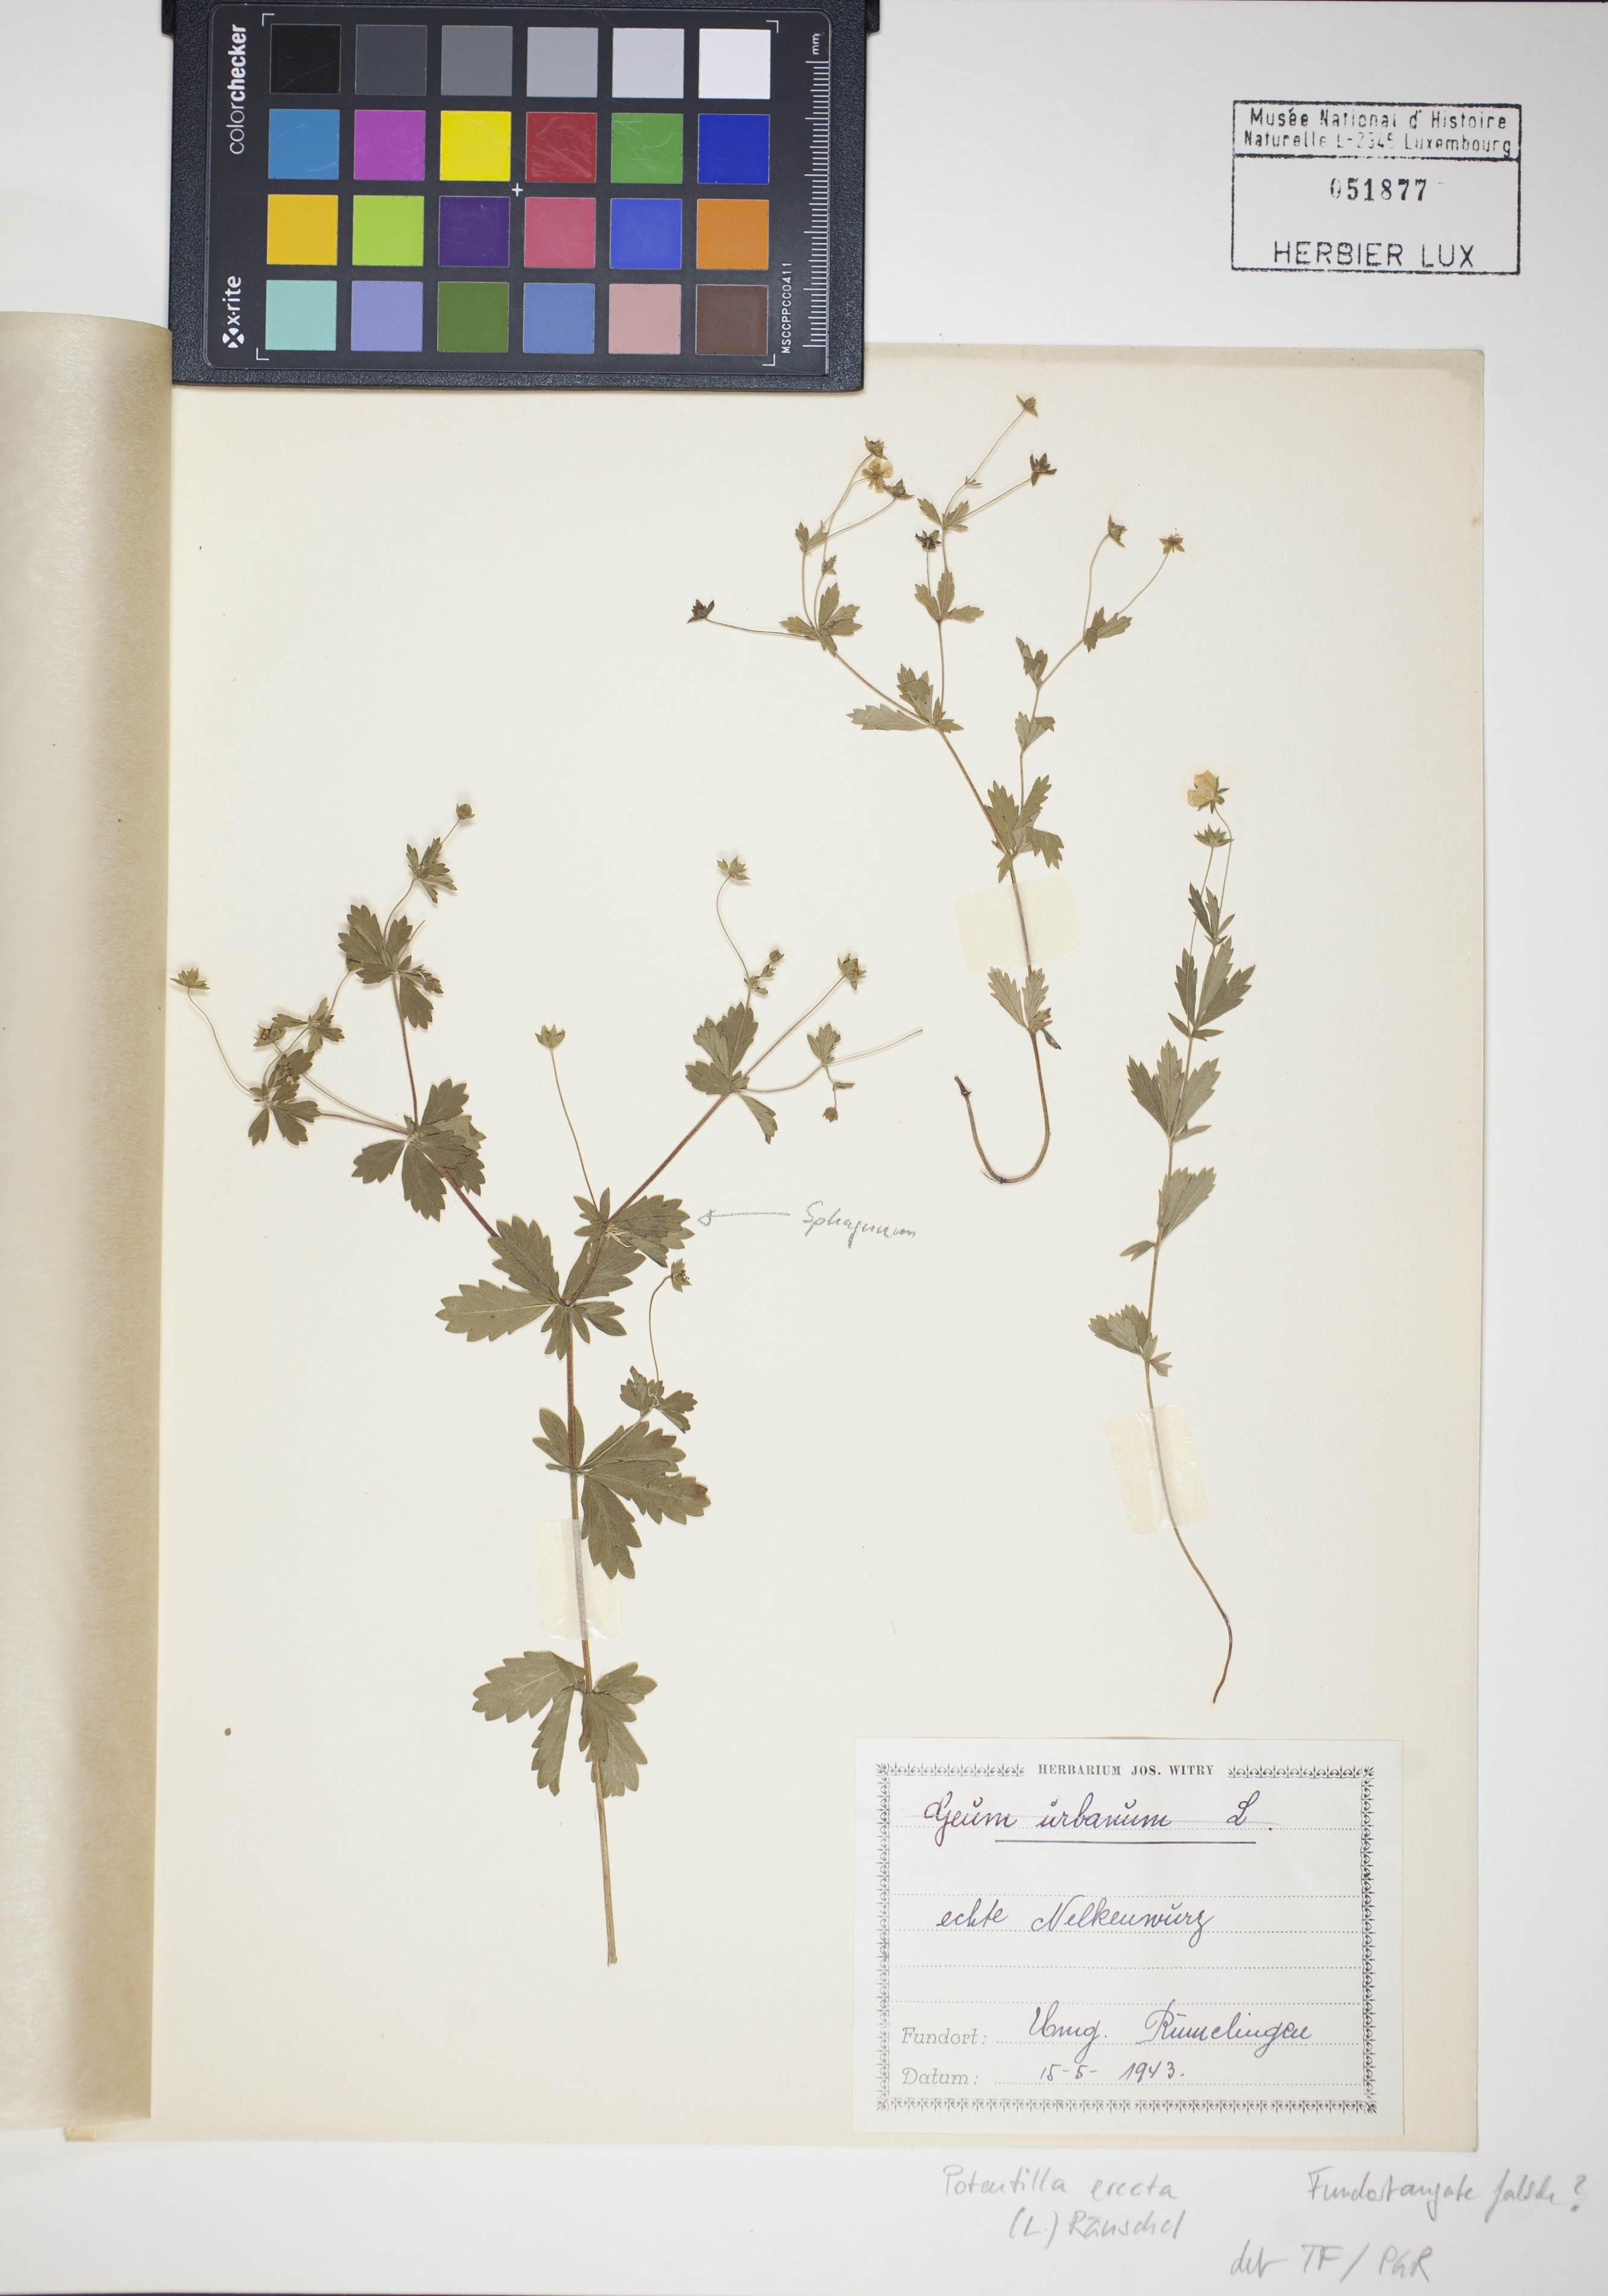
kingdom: Plantae
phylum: Tracheophyta
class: Magnoliopsida
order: Rosales
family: Rosaceae
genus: Potentilla
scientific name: Potentilla erecta
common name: Tormentil
